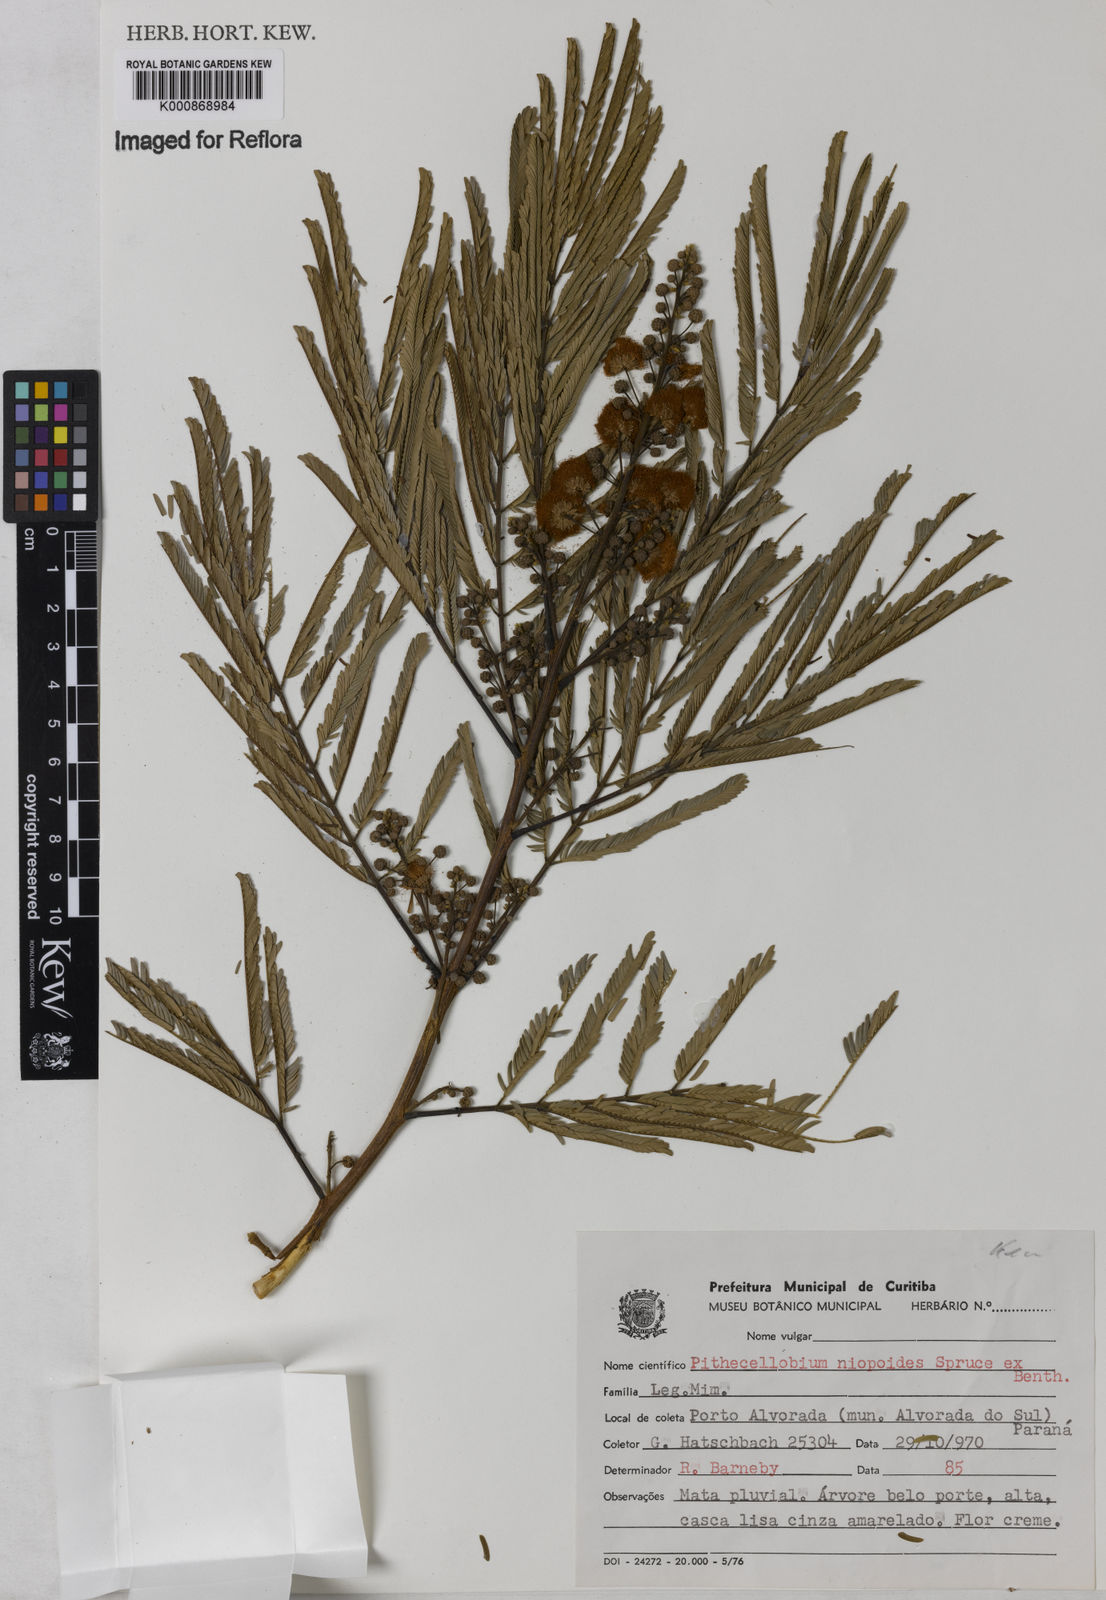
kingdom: Plantae
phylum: Tracheophyta
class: Magnoliopsida
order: Fabales
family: Fabaceae
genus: Albizia
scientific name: Albizia niopoides
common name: Silk tree
